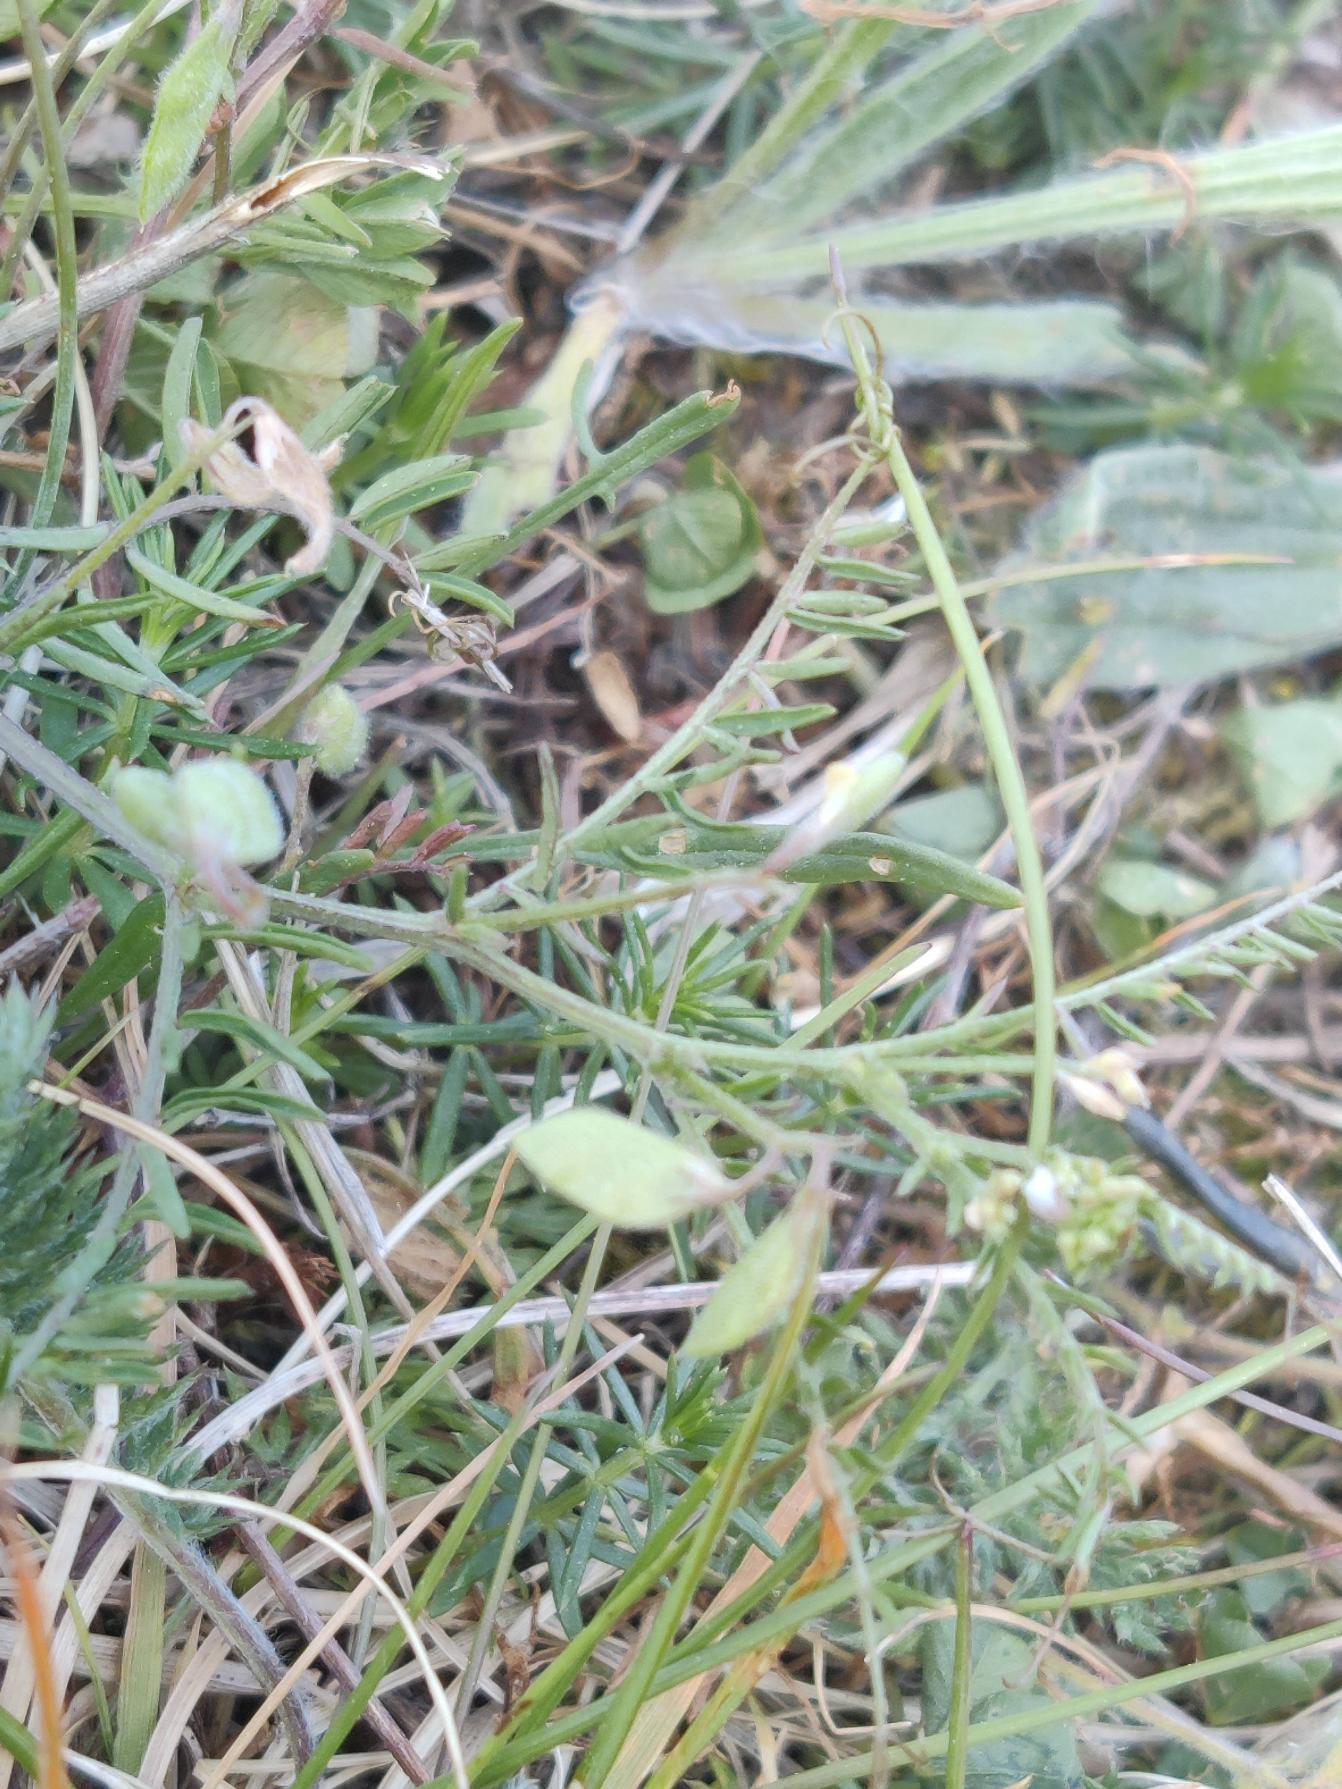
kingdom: Plantae
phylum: Tracheophyta
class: Magnoliopsida
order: Fabales
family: Fabaceae
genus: Vicia
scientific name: Vicia hirsuta
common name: Tofrøet vikke
